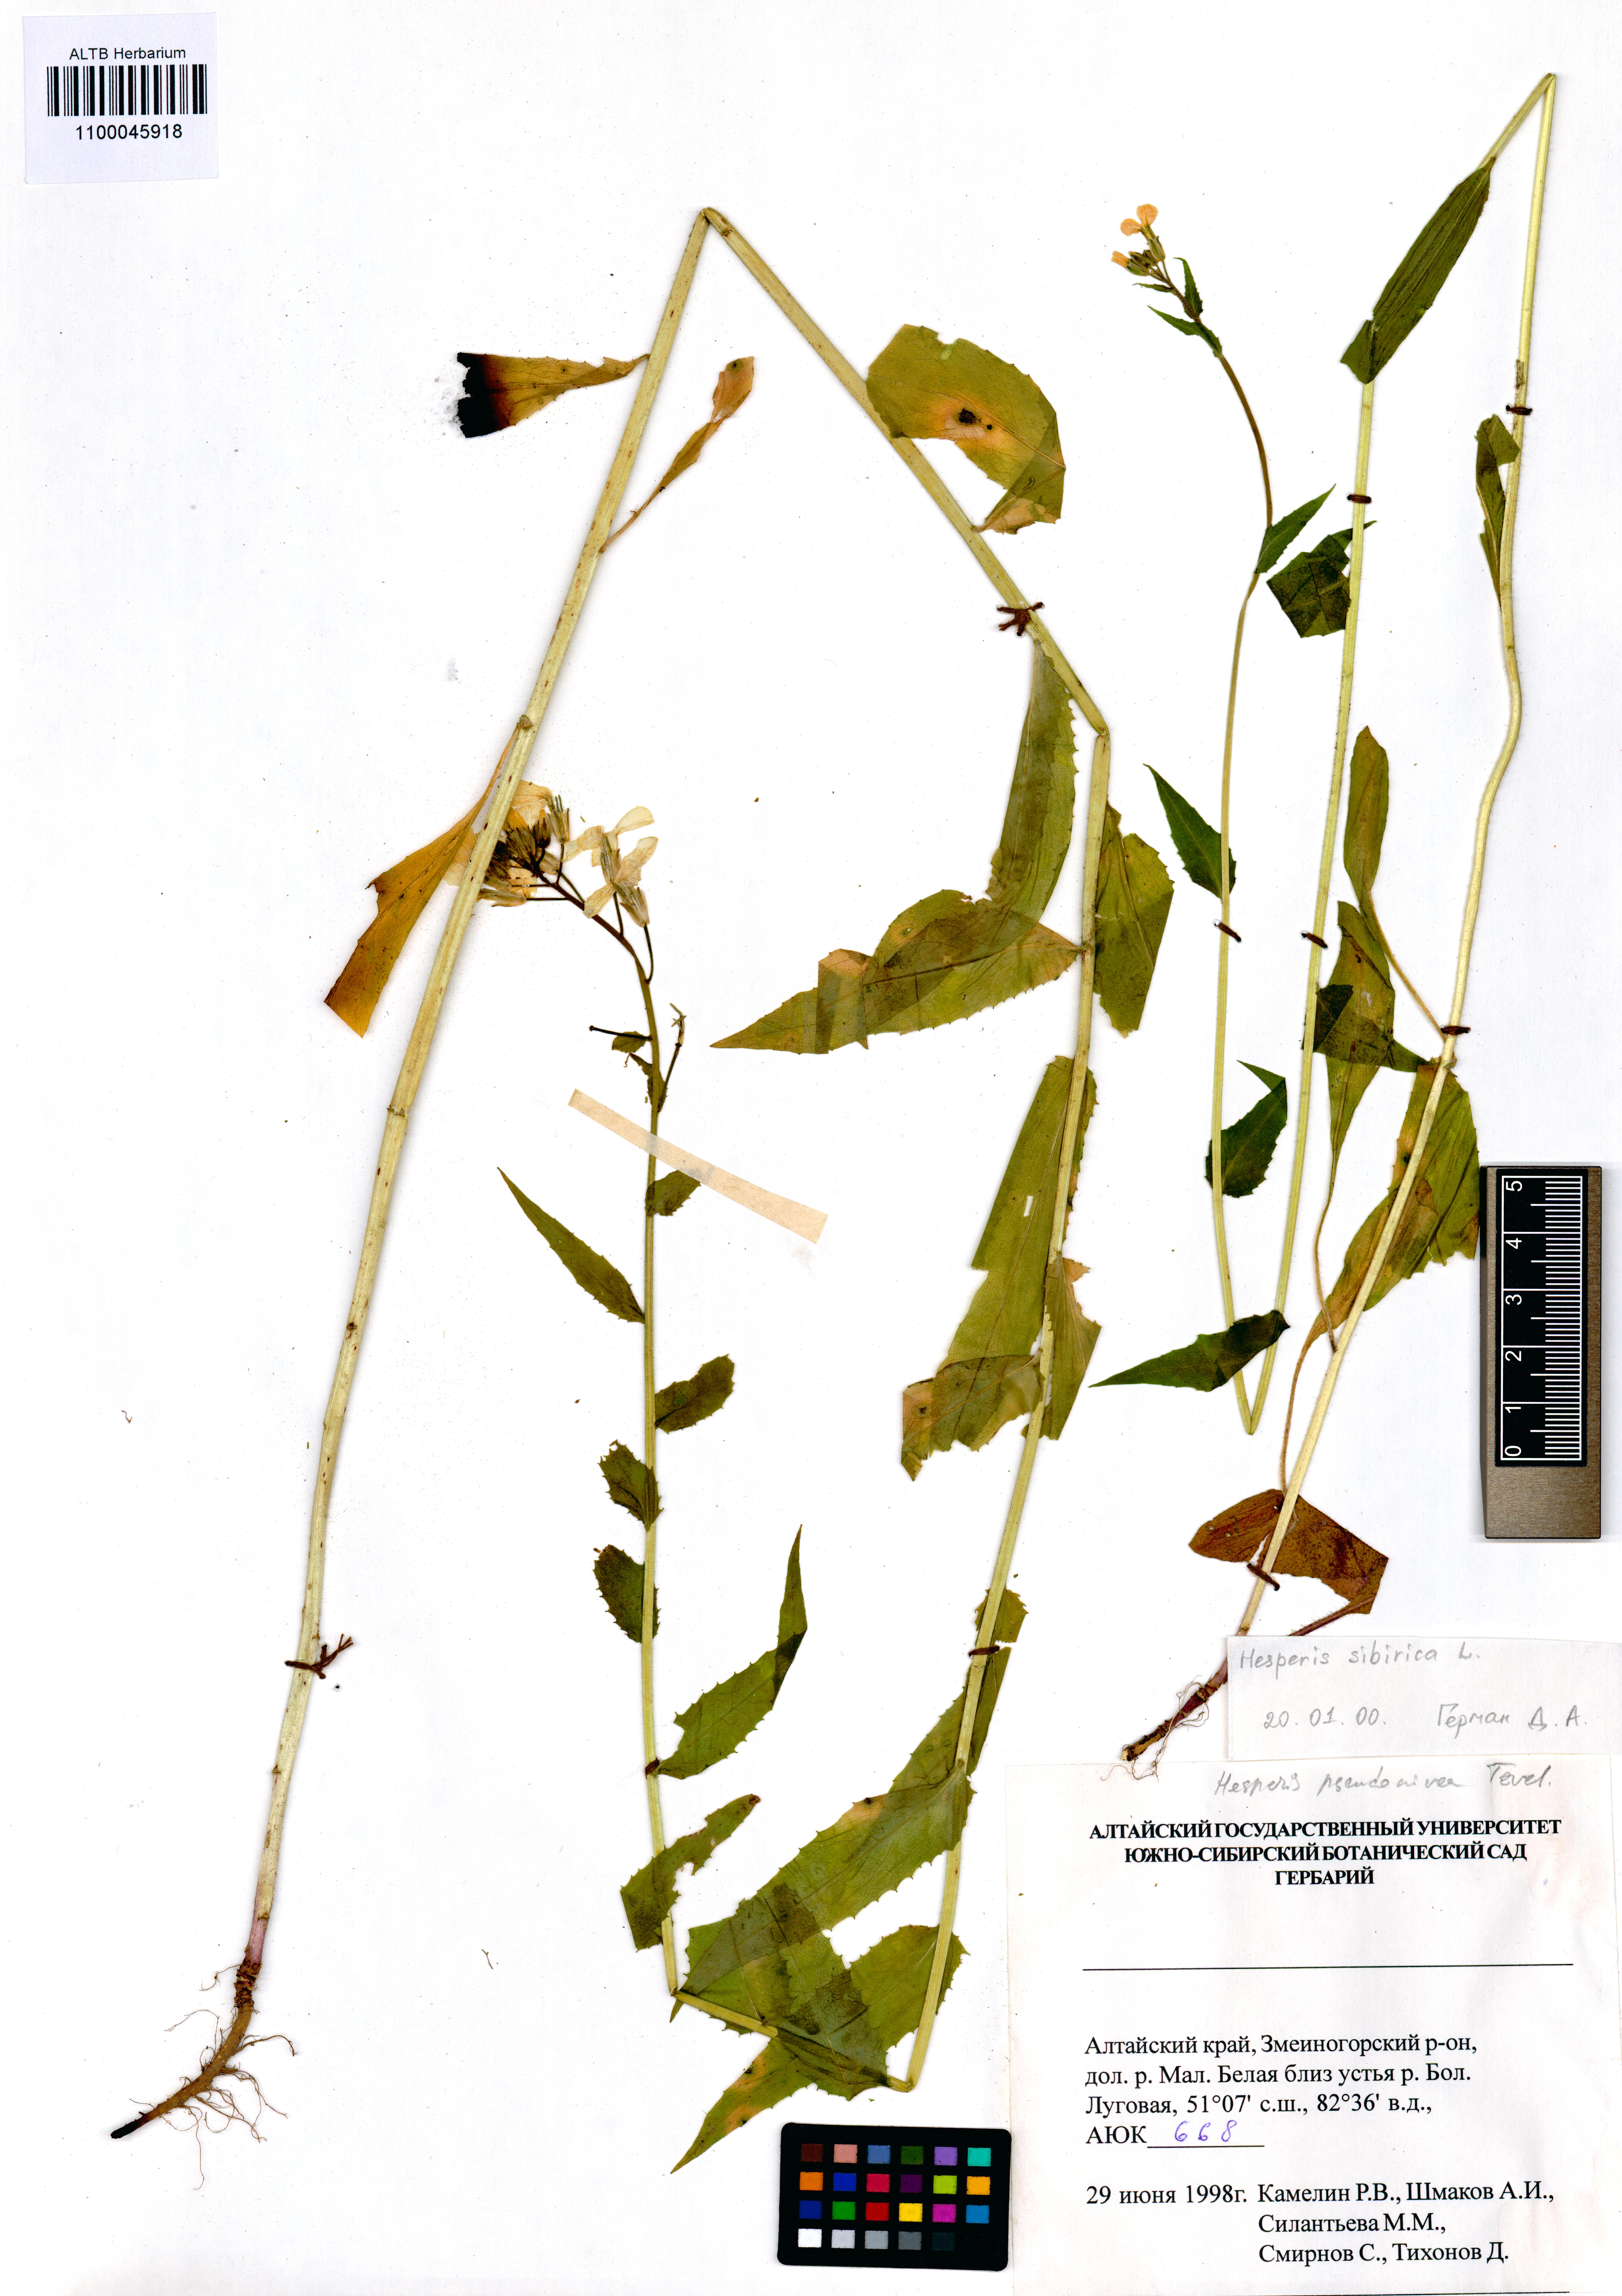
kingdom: Plantae
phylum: Tracheophyta
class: Magnoliopsida
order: Brassicales
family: Brassicaceae
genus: Hesperis
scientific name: Hesperis sibirica
